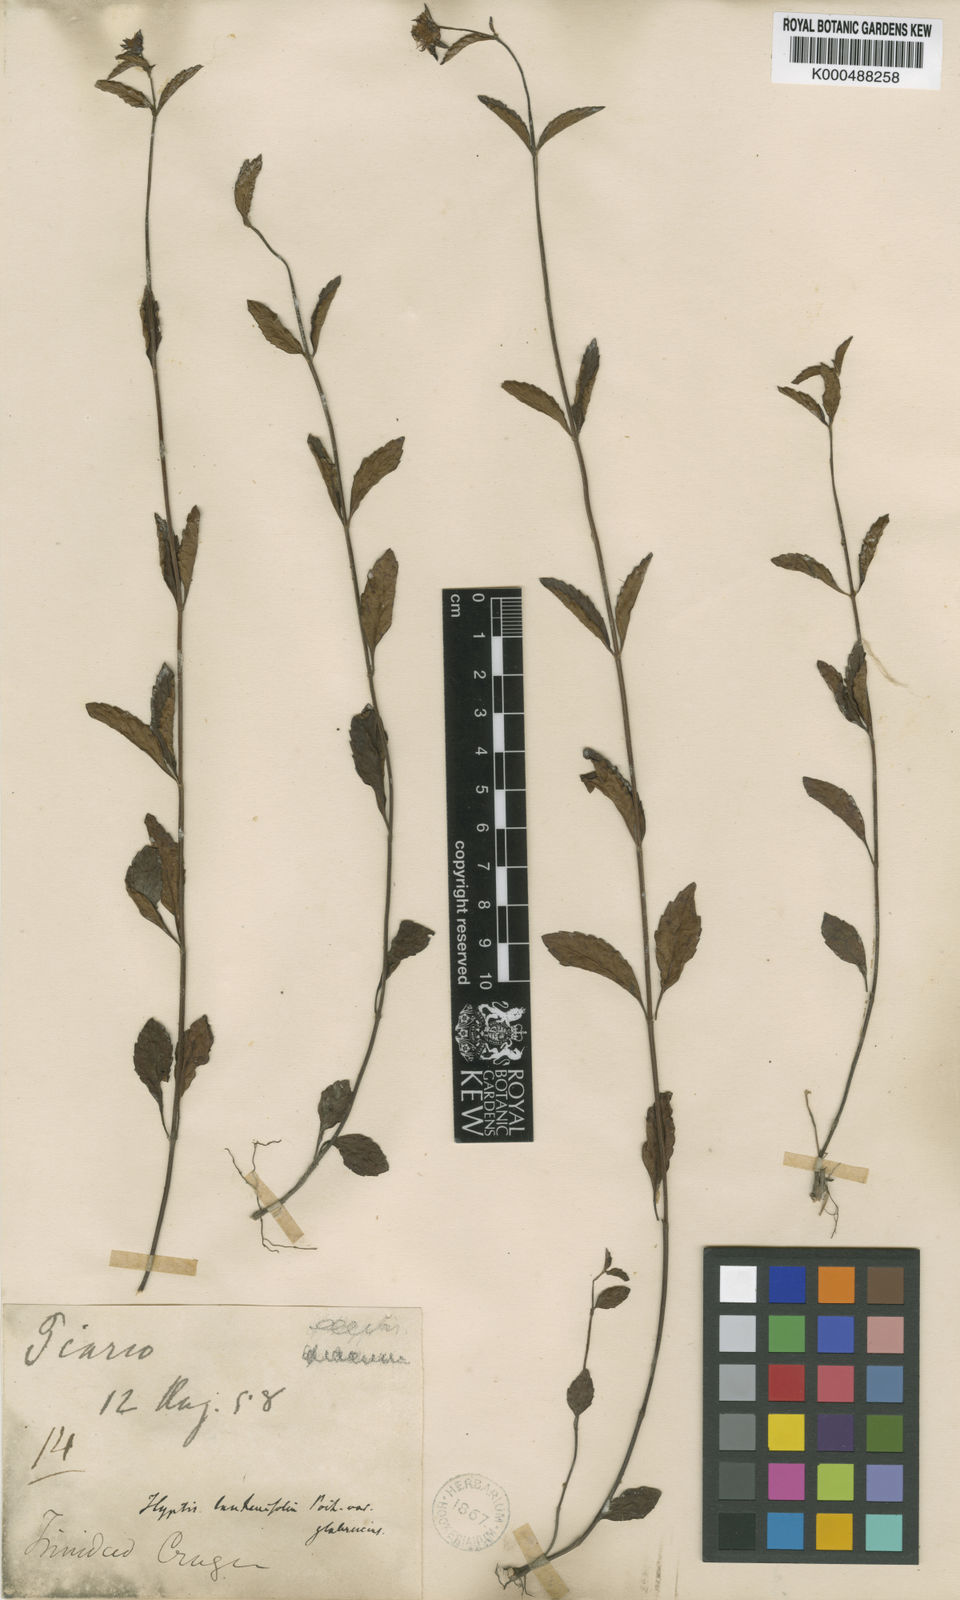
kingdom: Plantae
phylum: Tracheophyta
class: Magnoliopsida
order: Lamiales
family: Lamiaceae
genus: Hyptis
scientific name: Hyptis lantanifolia
